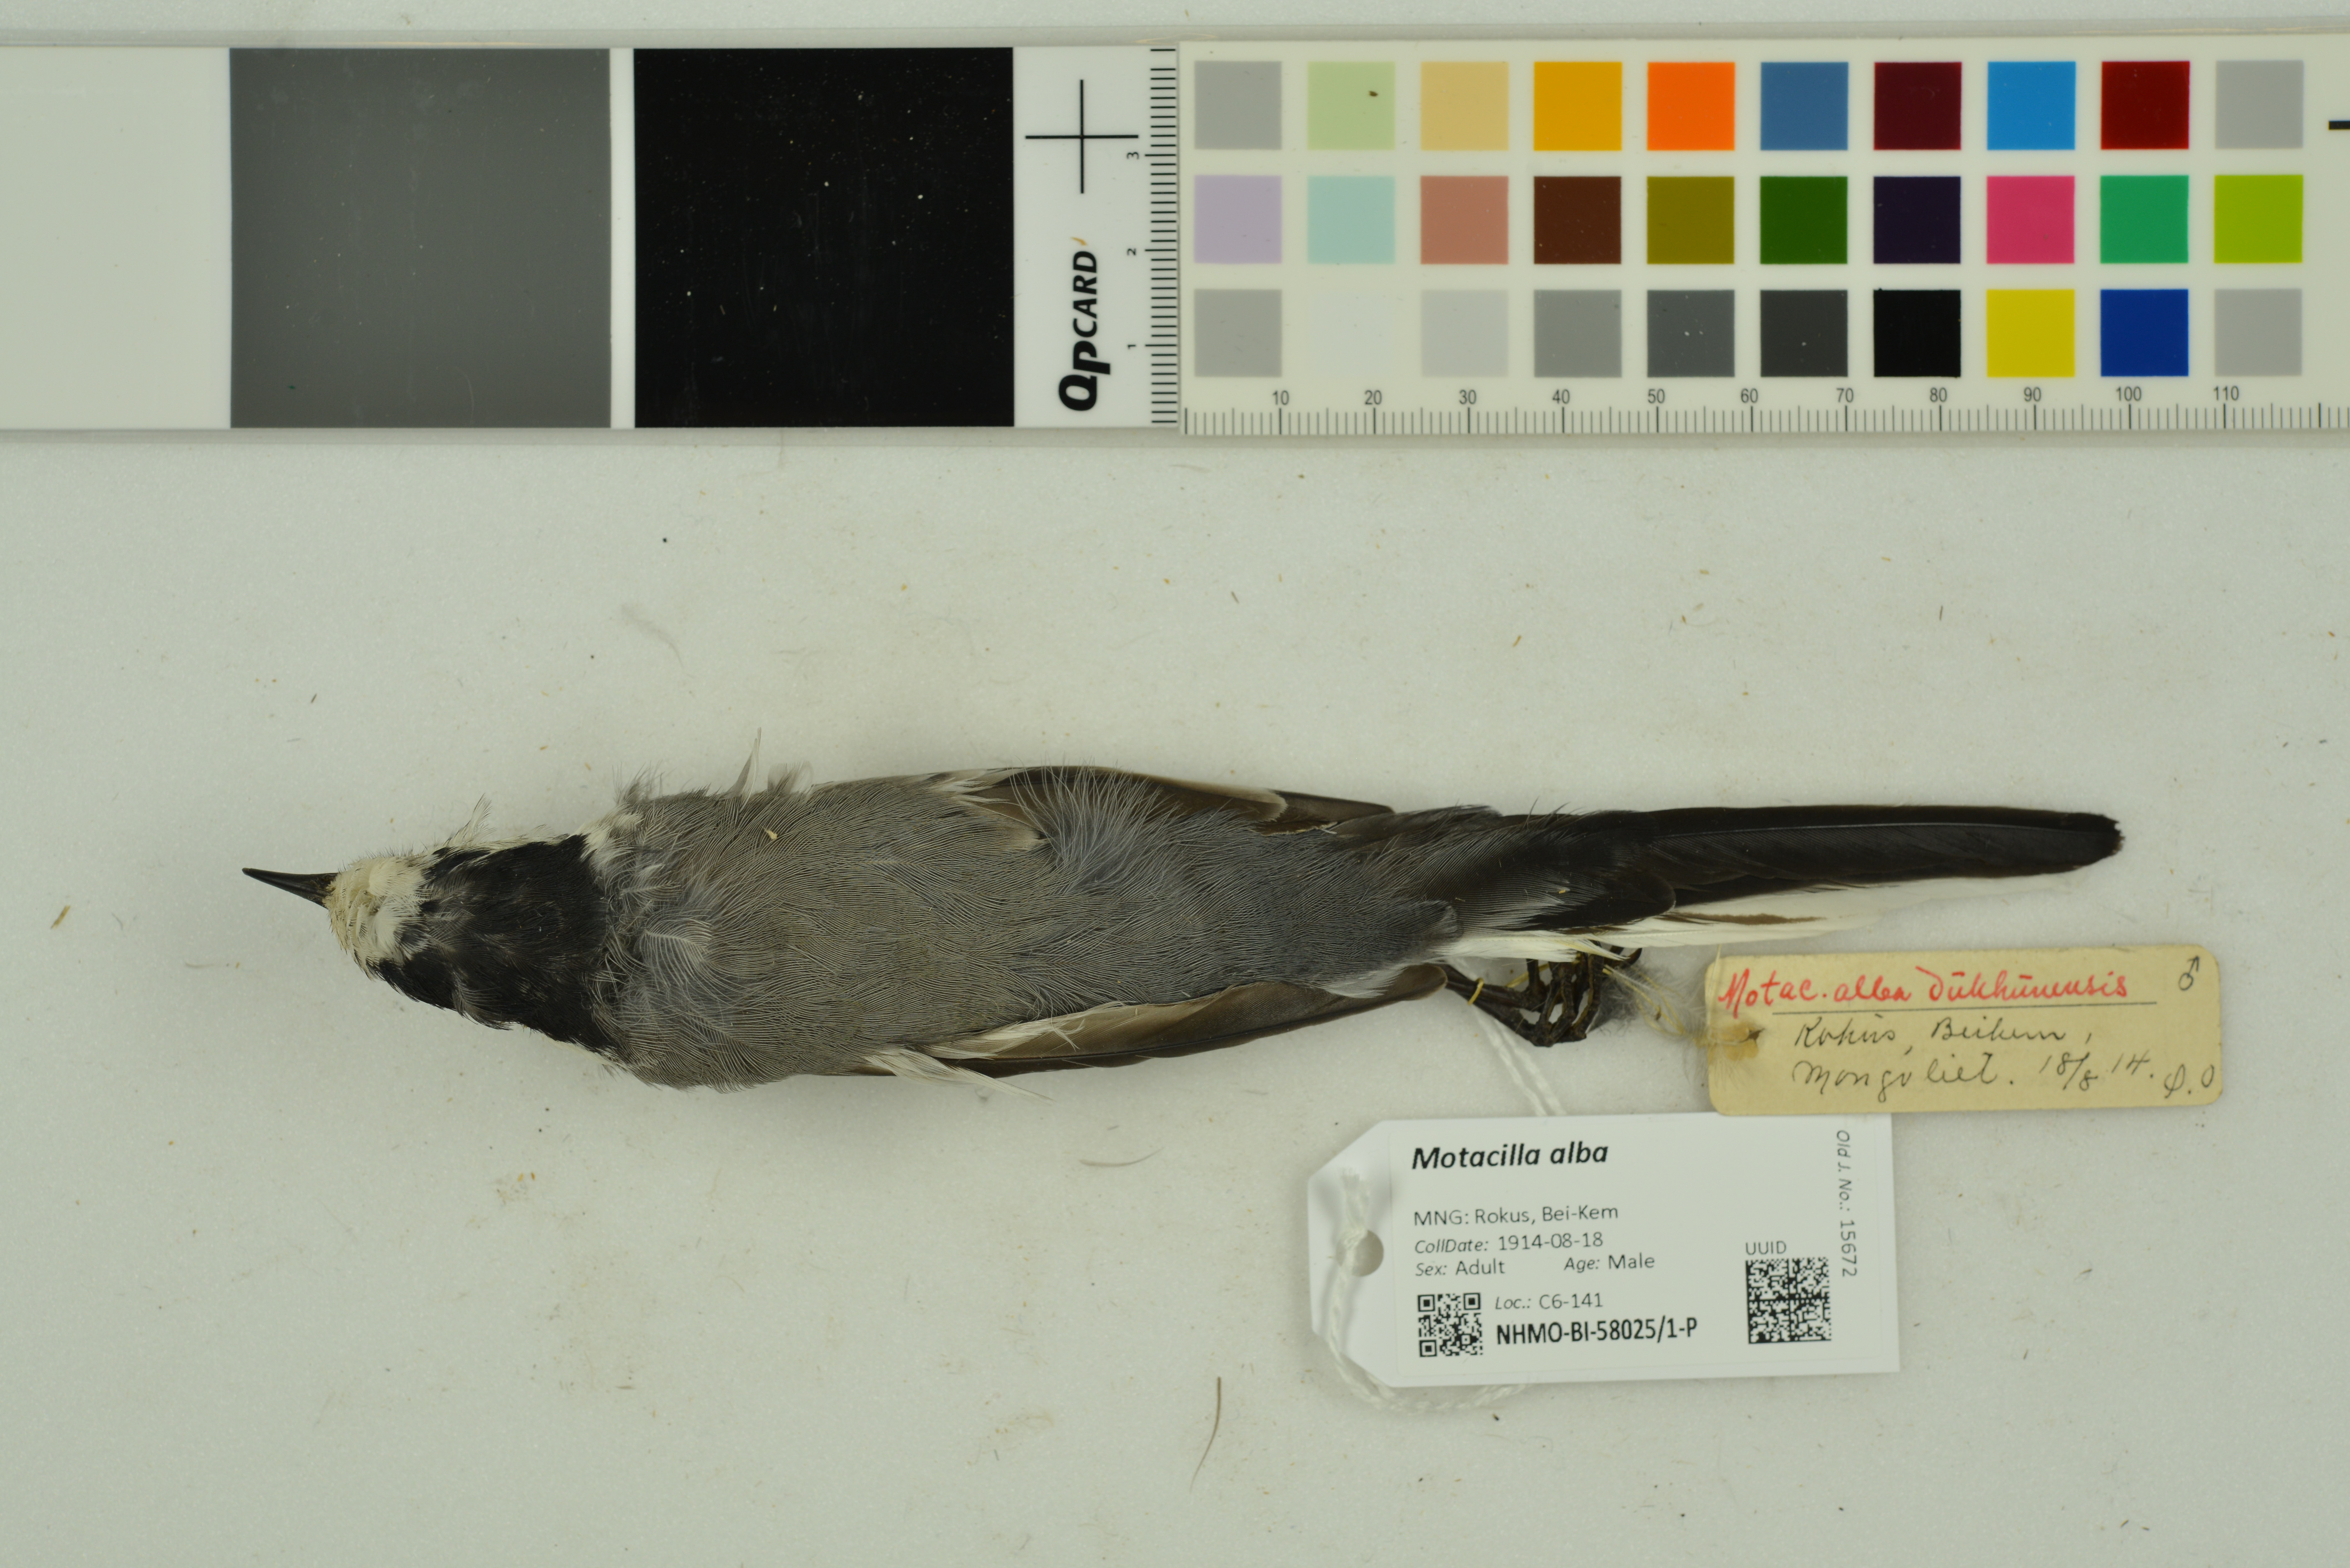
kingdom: Animalia
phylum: Chordata
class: Aves
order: Passeriformes
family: Motacillidae
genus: Motacilla
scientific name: Motacilla alba
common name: White wagtail
